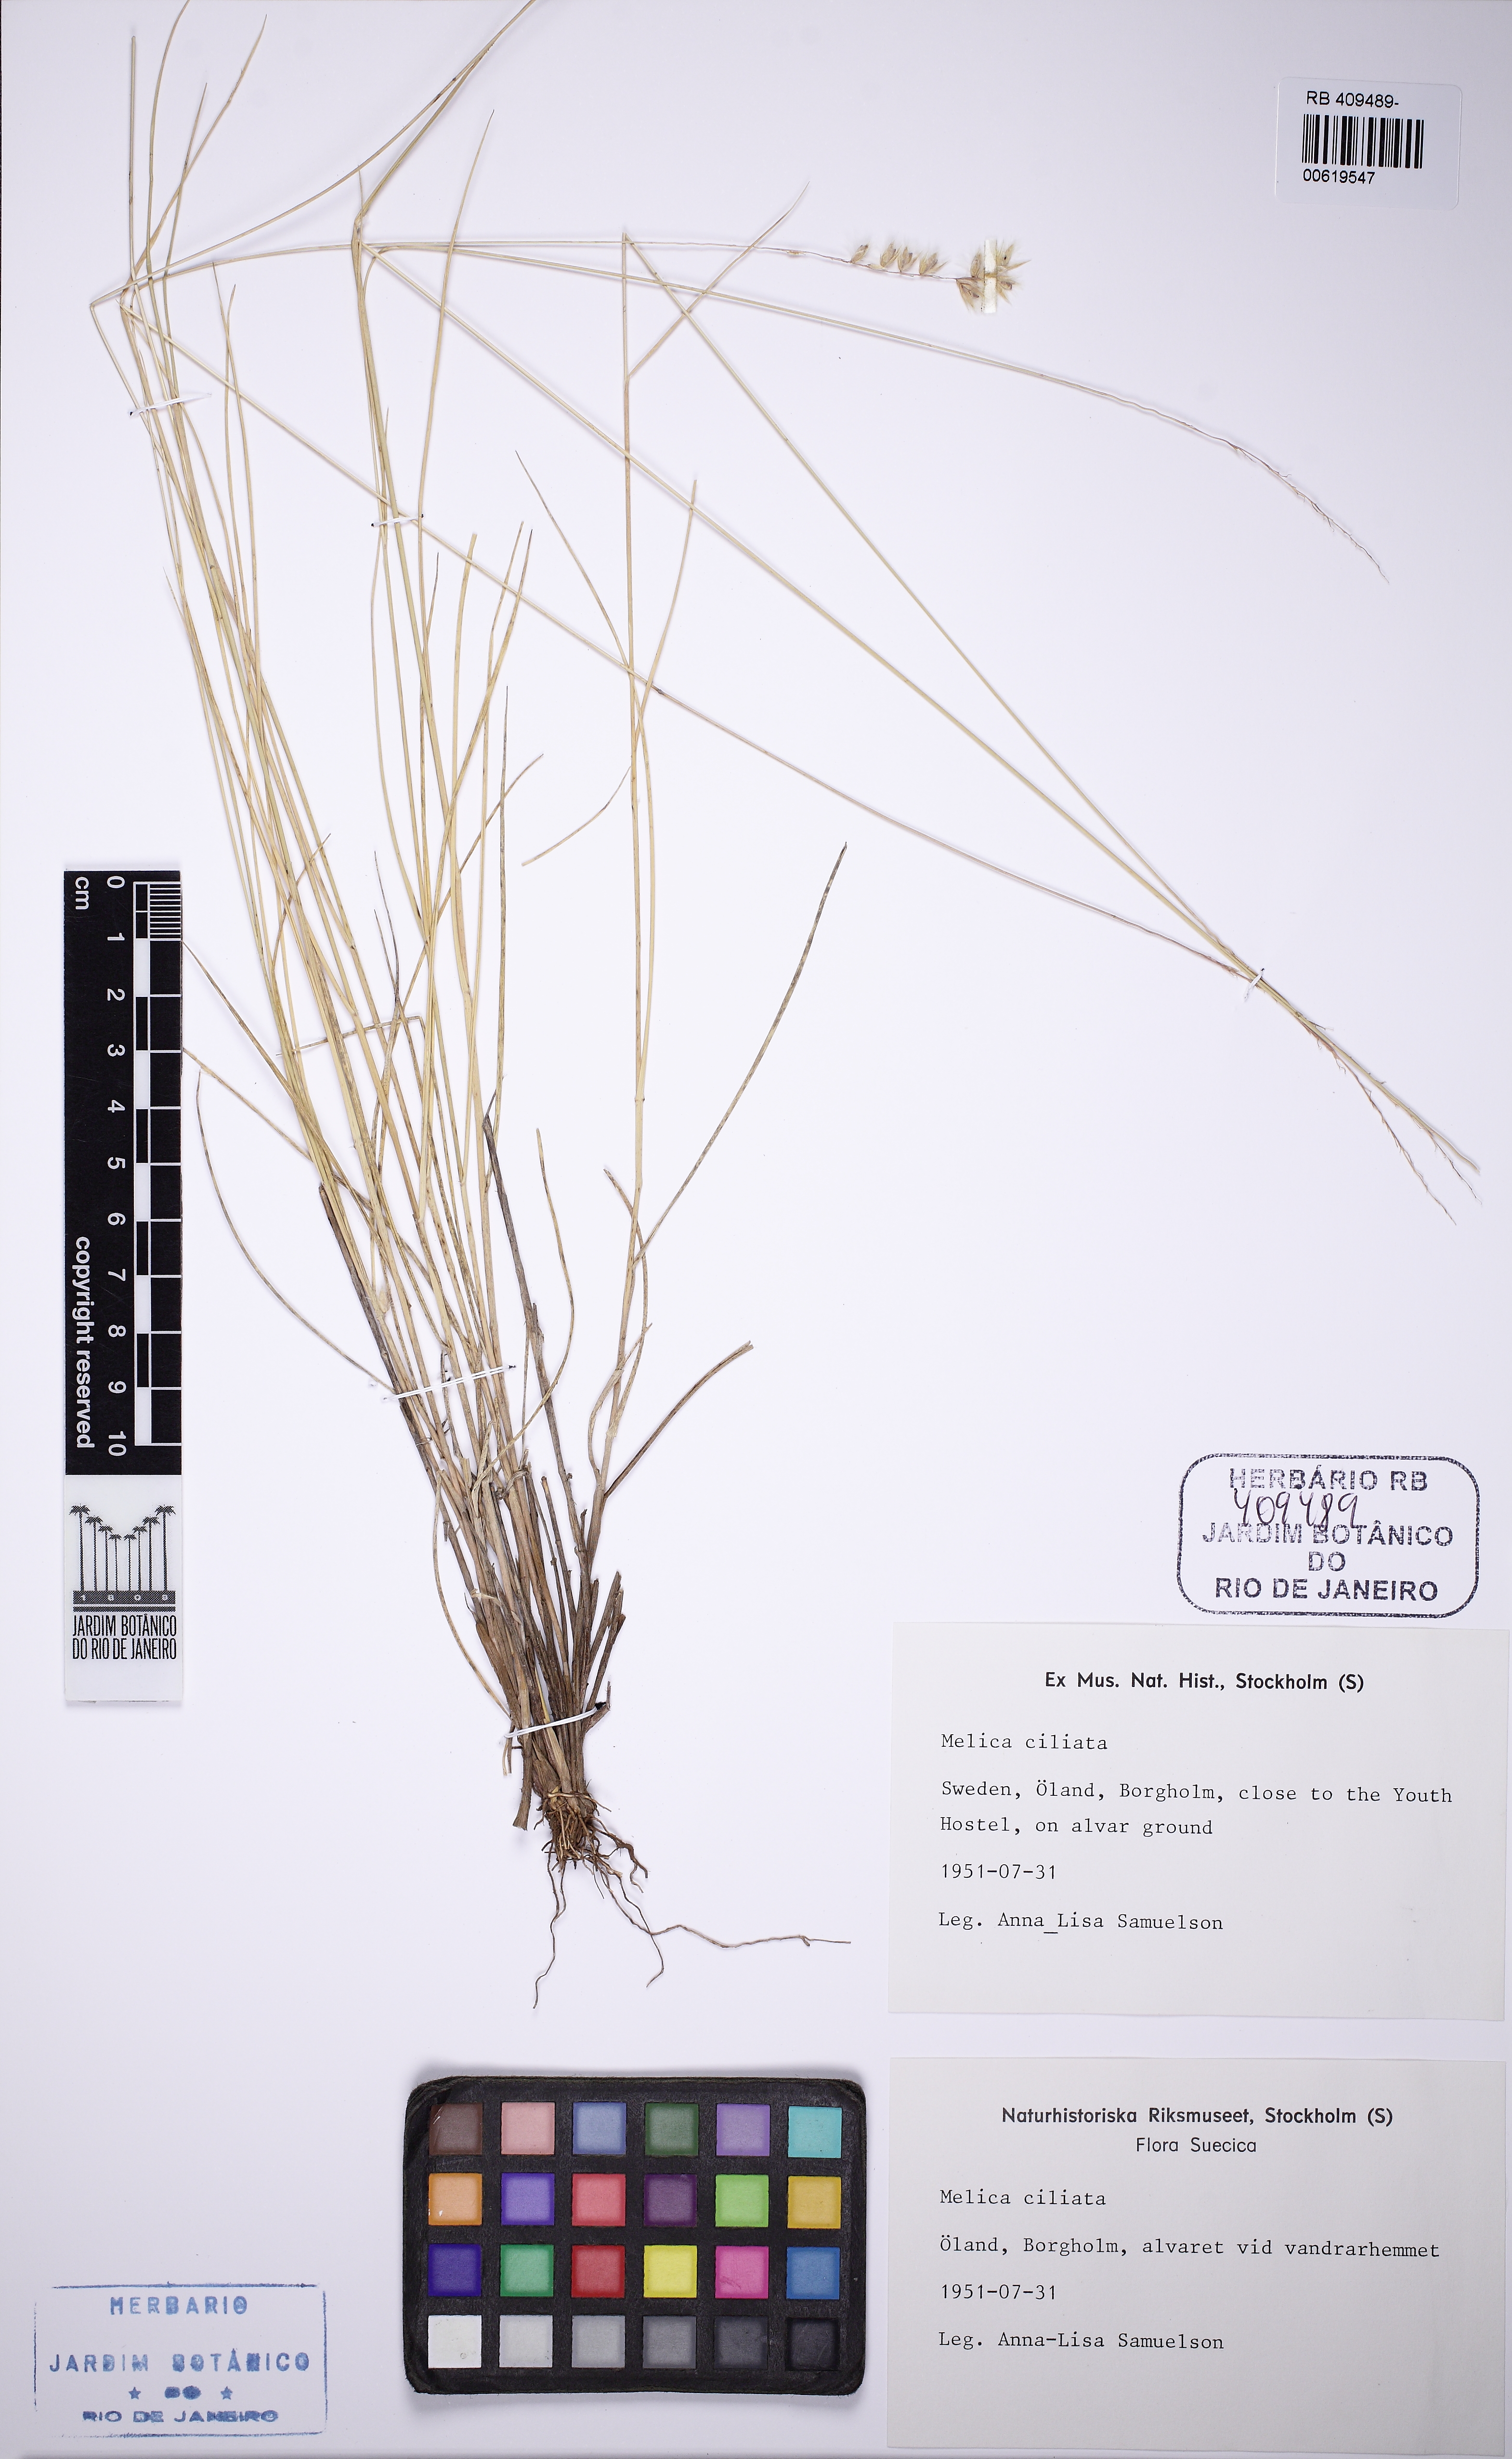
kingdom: Plantae
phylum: Tracheophyta
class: Liliopsida
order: Poales
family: Poaceae
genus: Melica
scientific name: Melica ciliata
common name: Hairy melicgrass
